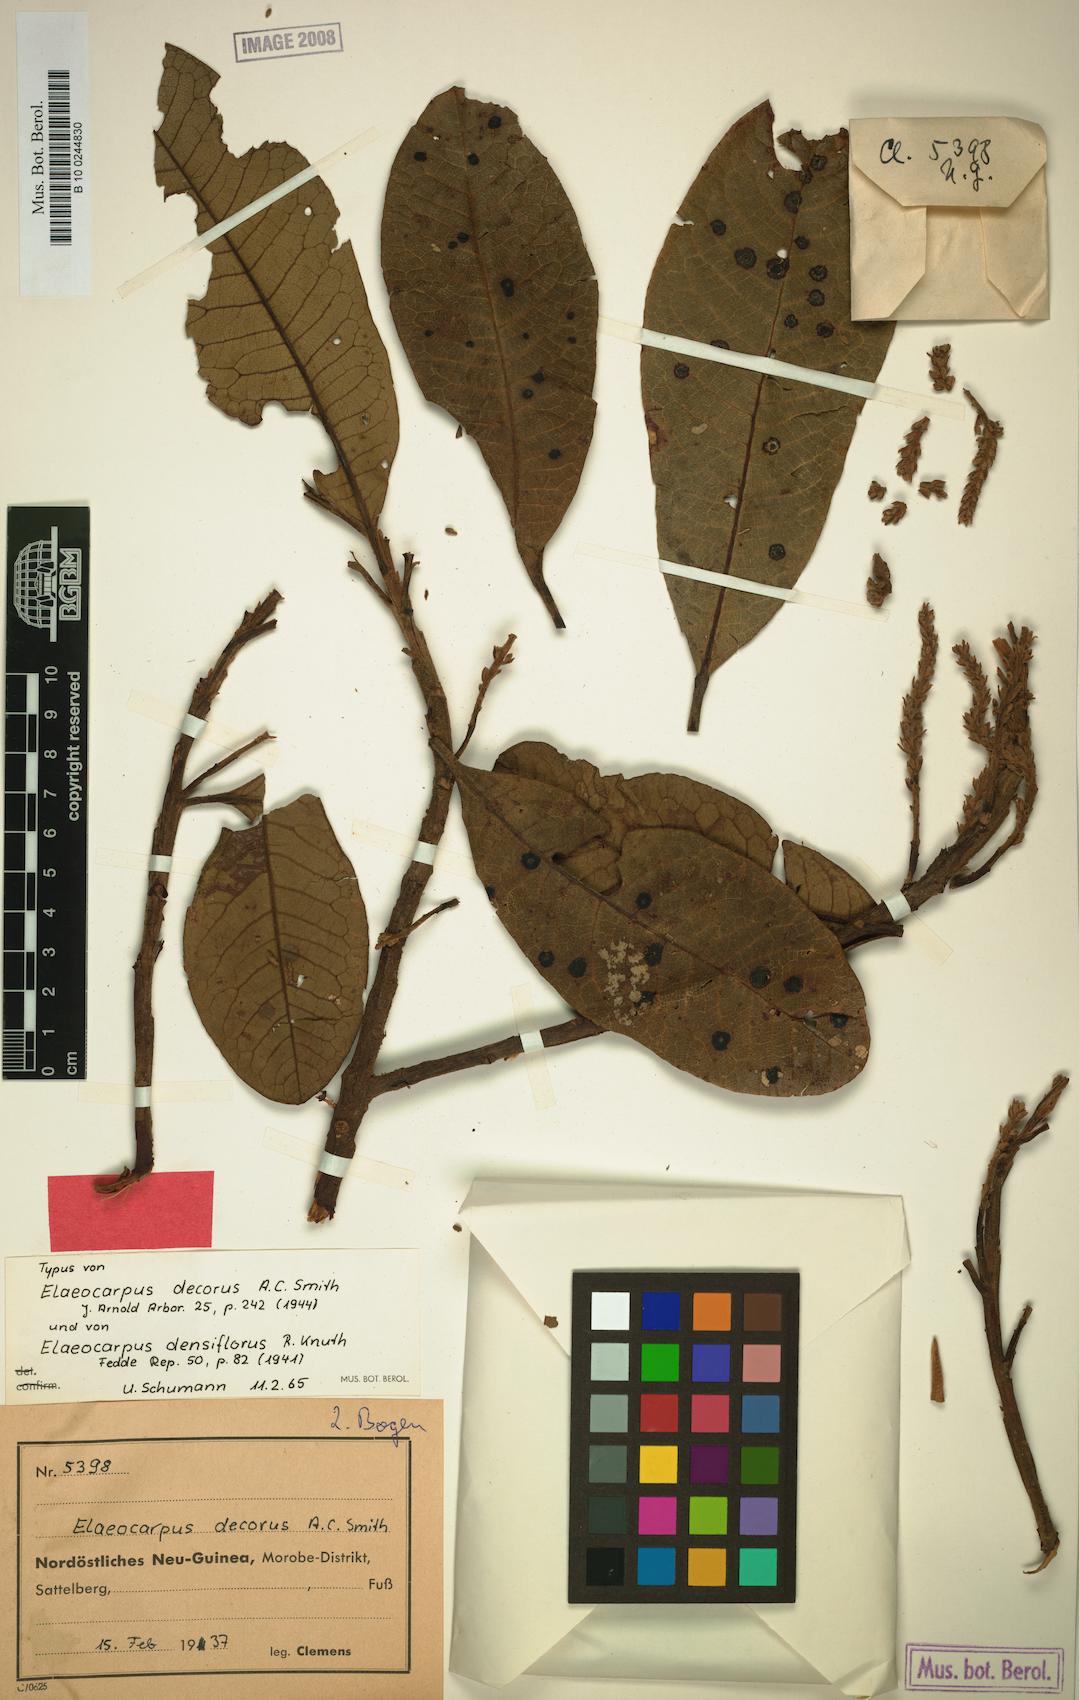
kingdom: Plantae
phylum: Tracheophyta
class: Magnoliopsida
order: Oxalidales
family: Elaeocarpaceae
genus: Elaeocarpus
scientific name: Elaeocarpus densiflorus
